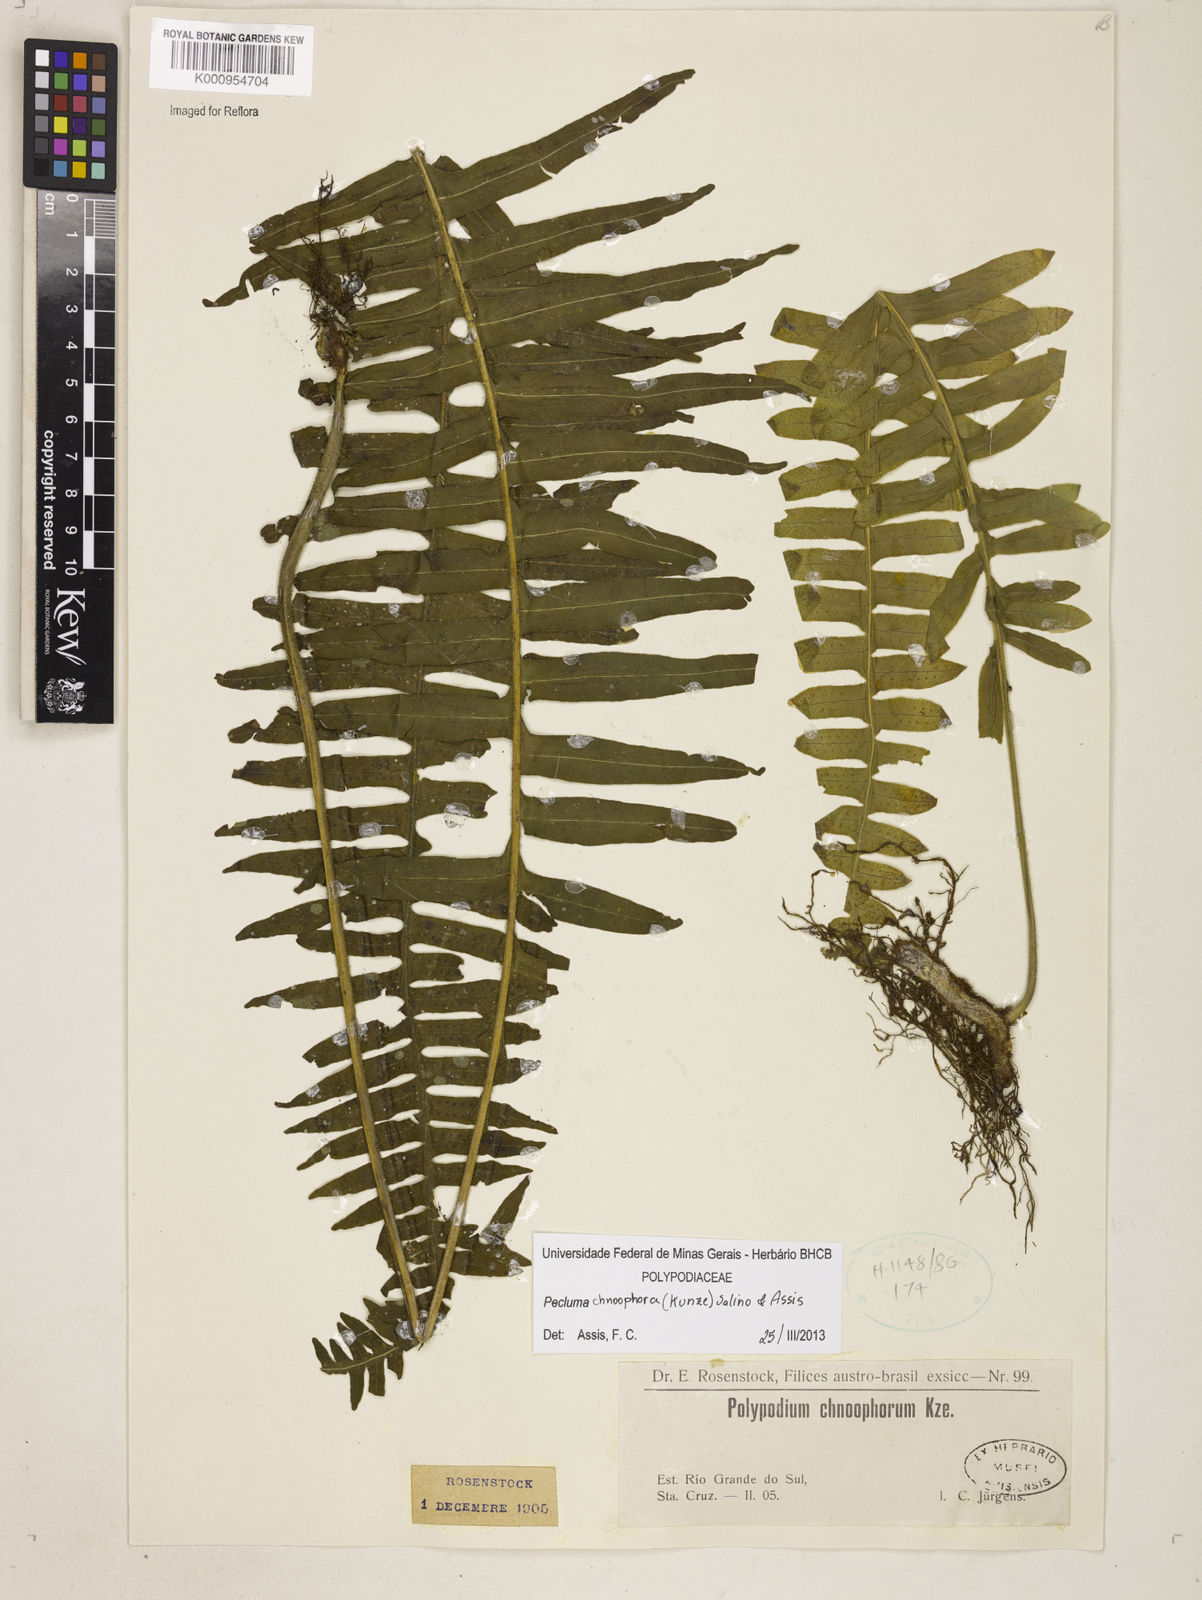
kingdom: Plantae
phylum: Tracheophyta
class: Polypodiopsida
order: Polypodiales
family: Polypodiaceae
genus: Pecluma
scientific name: Pecluma chnoophora
